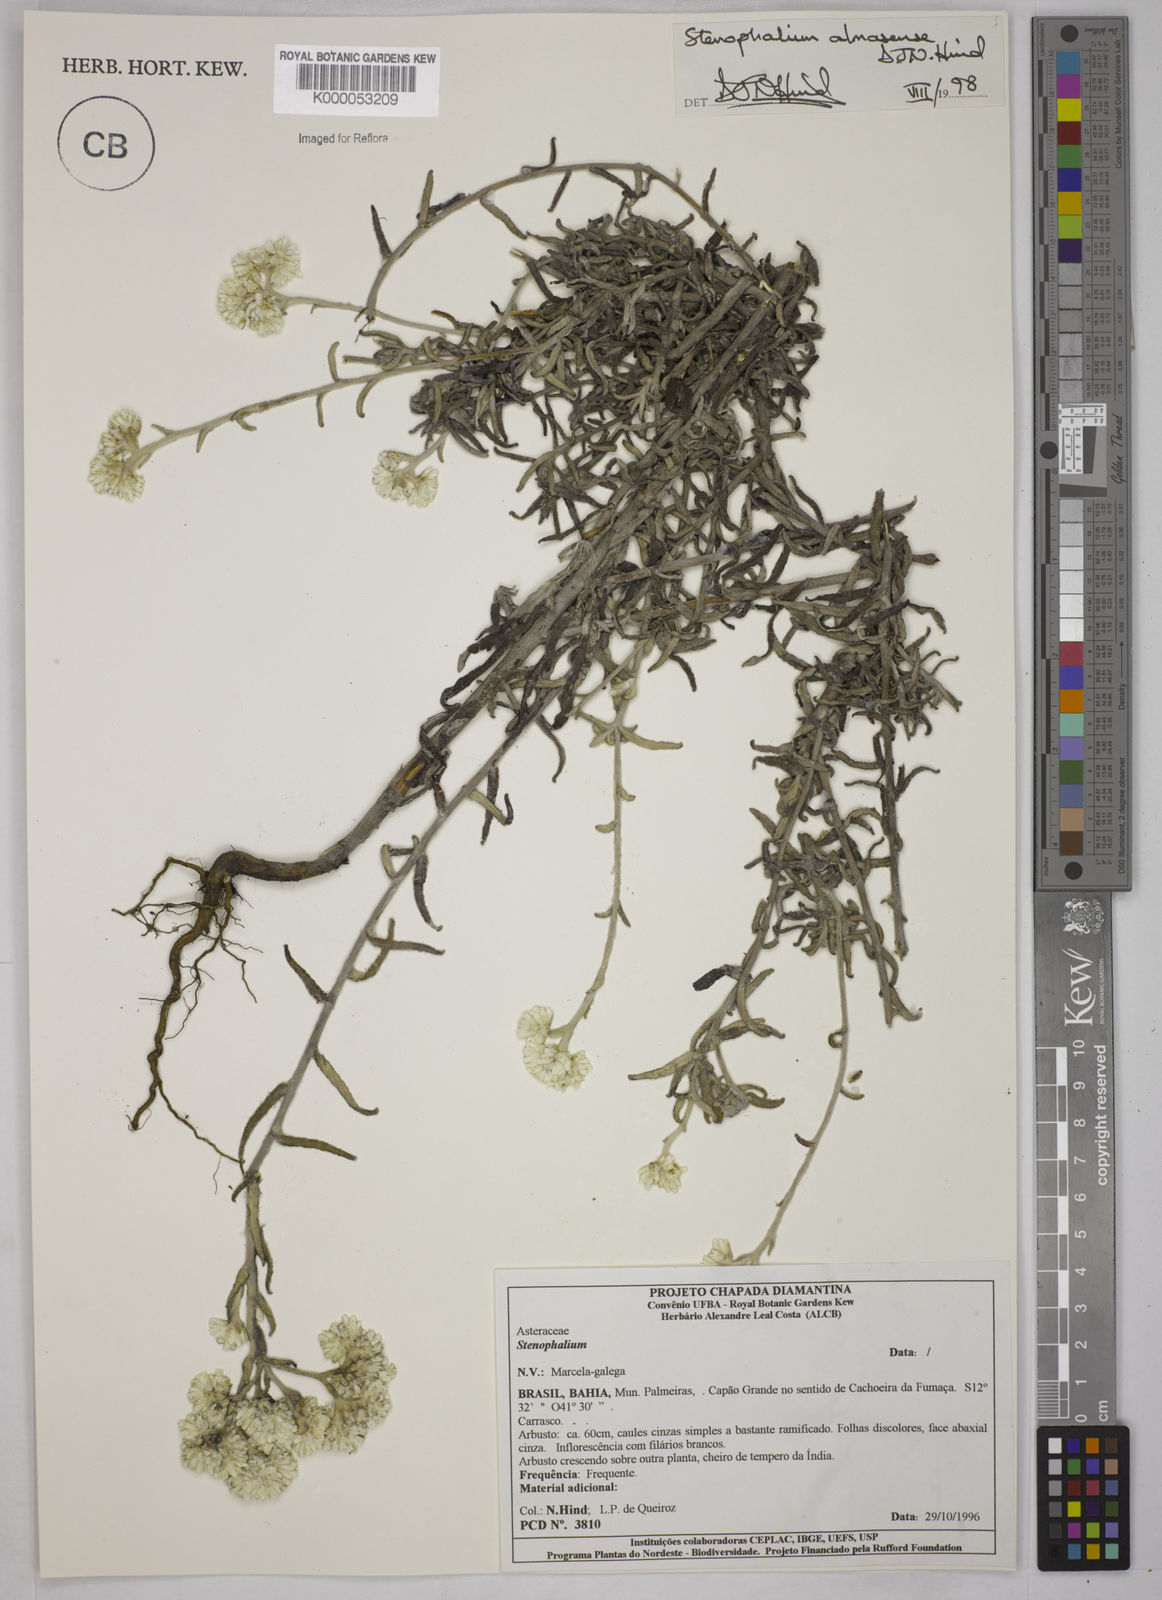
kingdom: Plantae
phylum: Tracheophyta
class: Magnoliopsida
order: Asterales
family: Asteraceae
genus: Achyrocline
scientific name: Achyrocline eriodes
